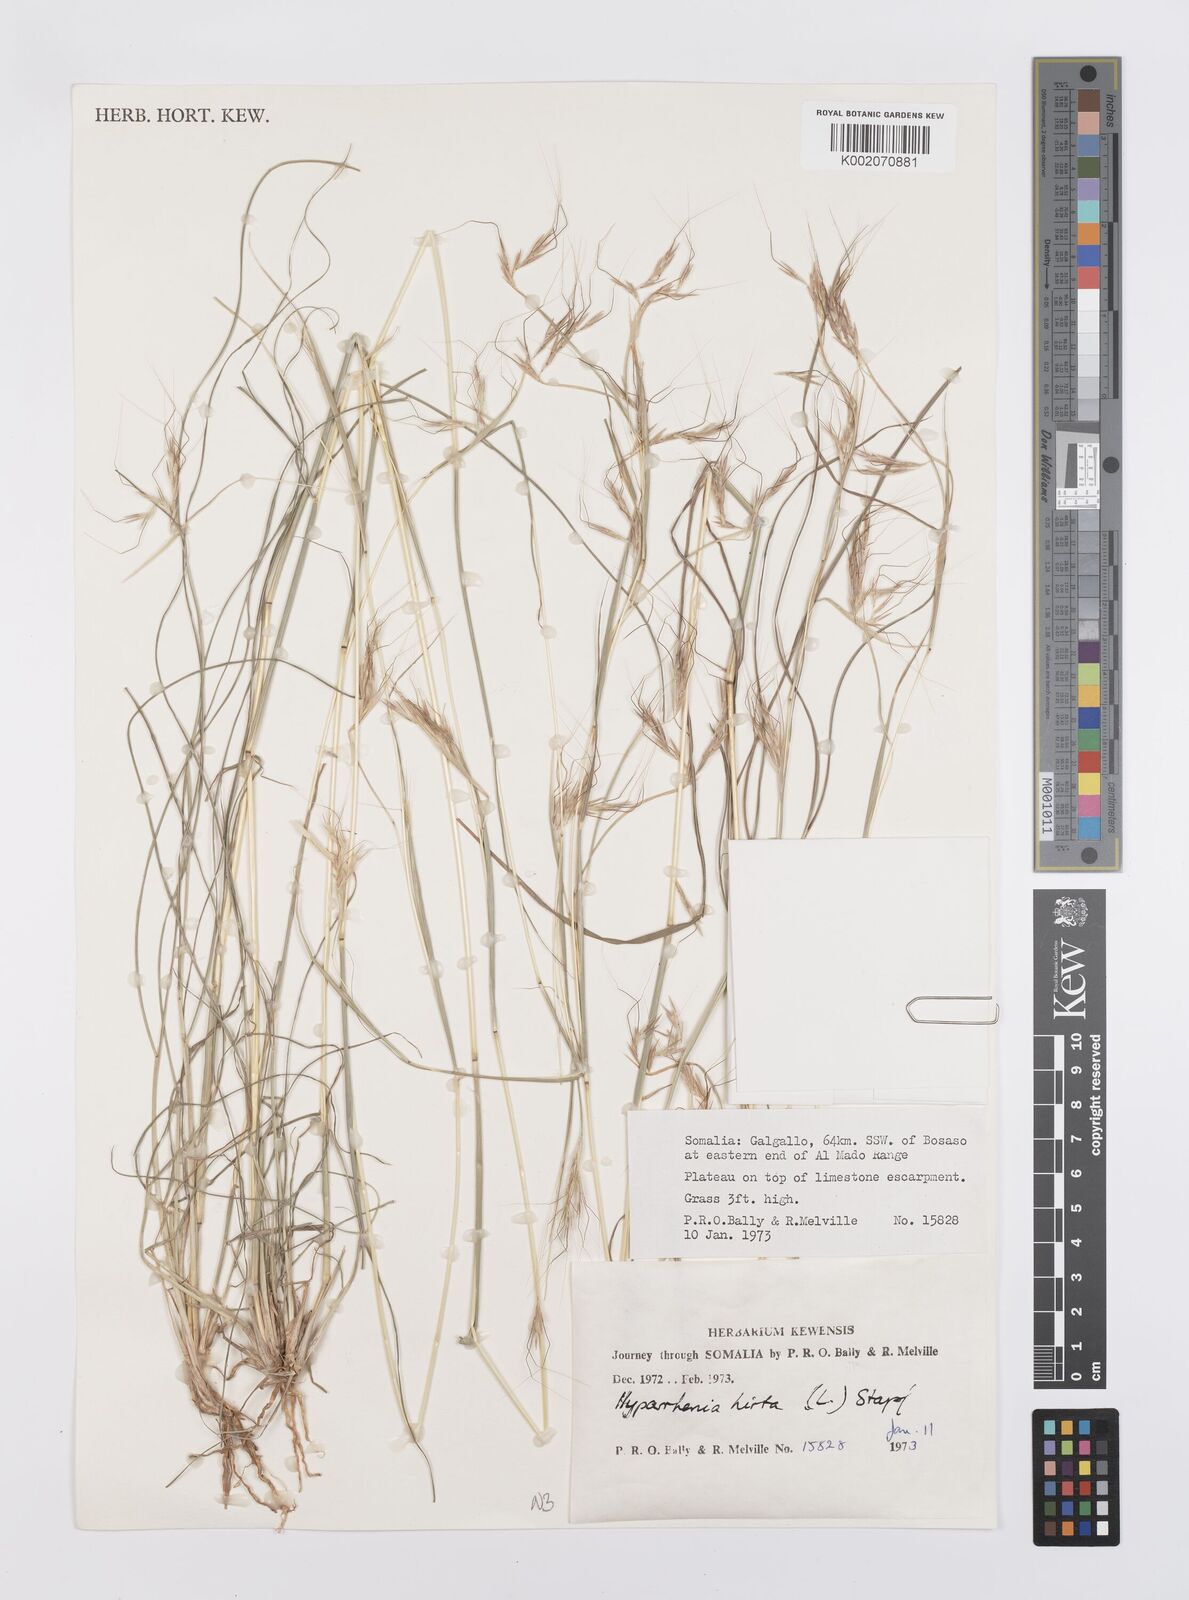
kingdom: Plantae
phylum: Tracheophyta
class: Liliopsida
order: Poales
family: Poaceae
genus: Hyparrhenia
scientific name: Hyparrhenia hirta
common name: Thatching grass
